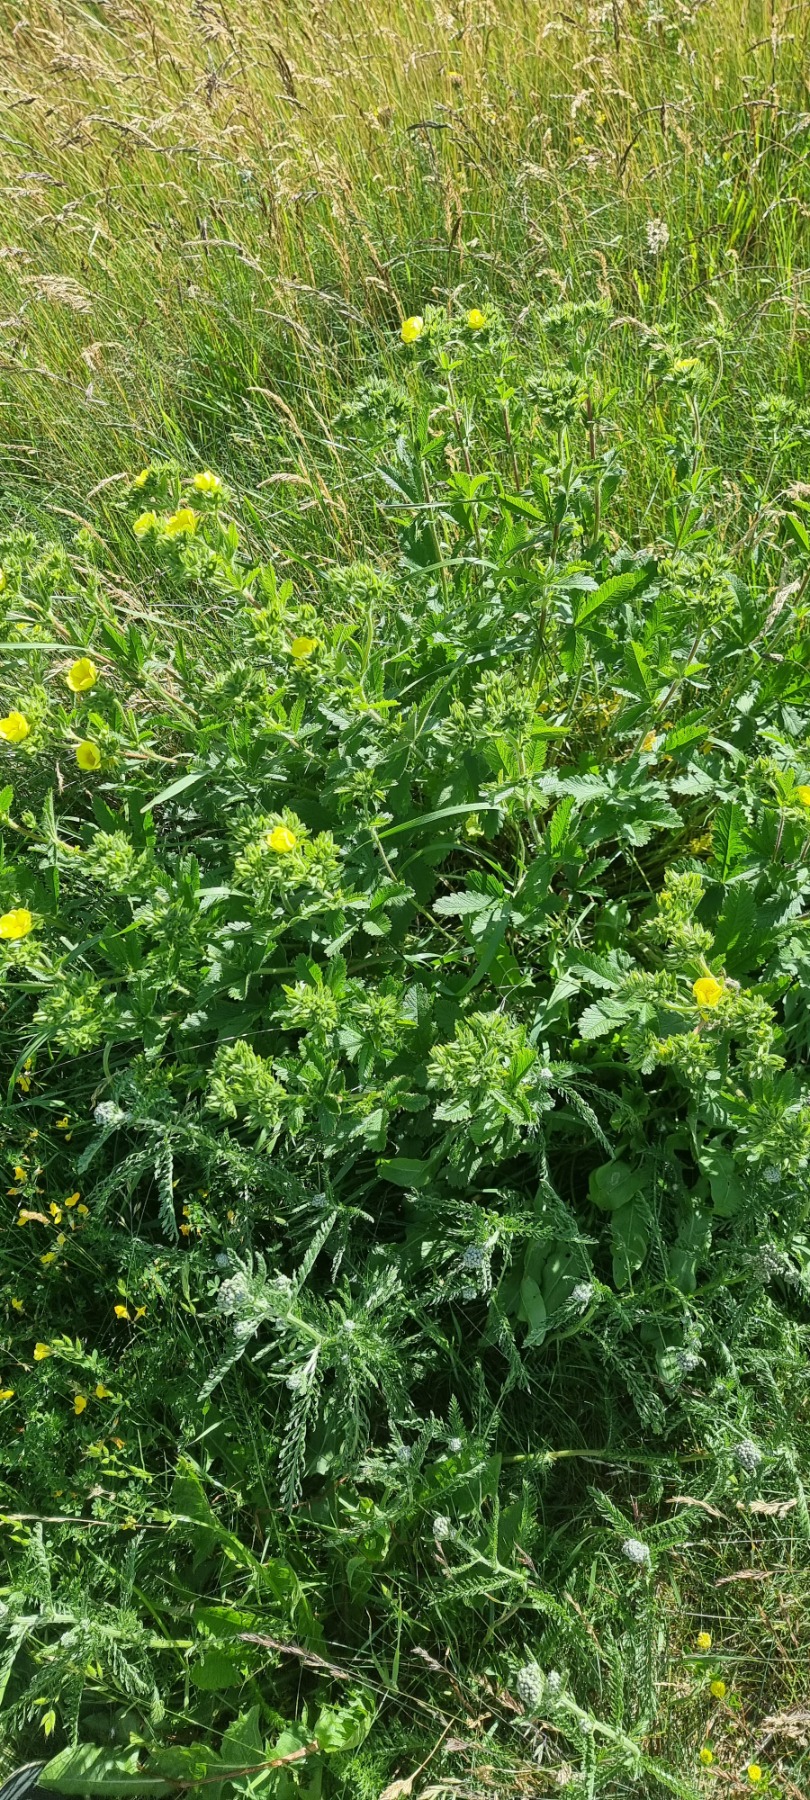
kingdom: Plantae
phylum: Tracheophyta
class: Magnoliopsida
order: Rosales
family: Rosaceae
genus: Potentilla
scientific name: Potentilla recta
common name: Rank potentil
